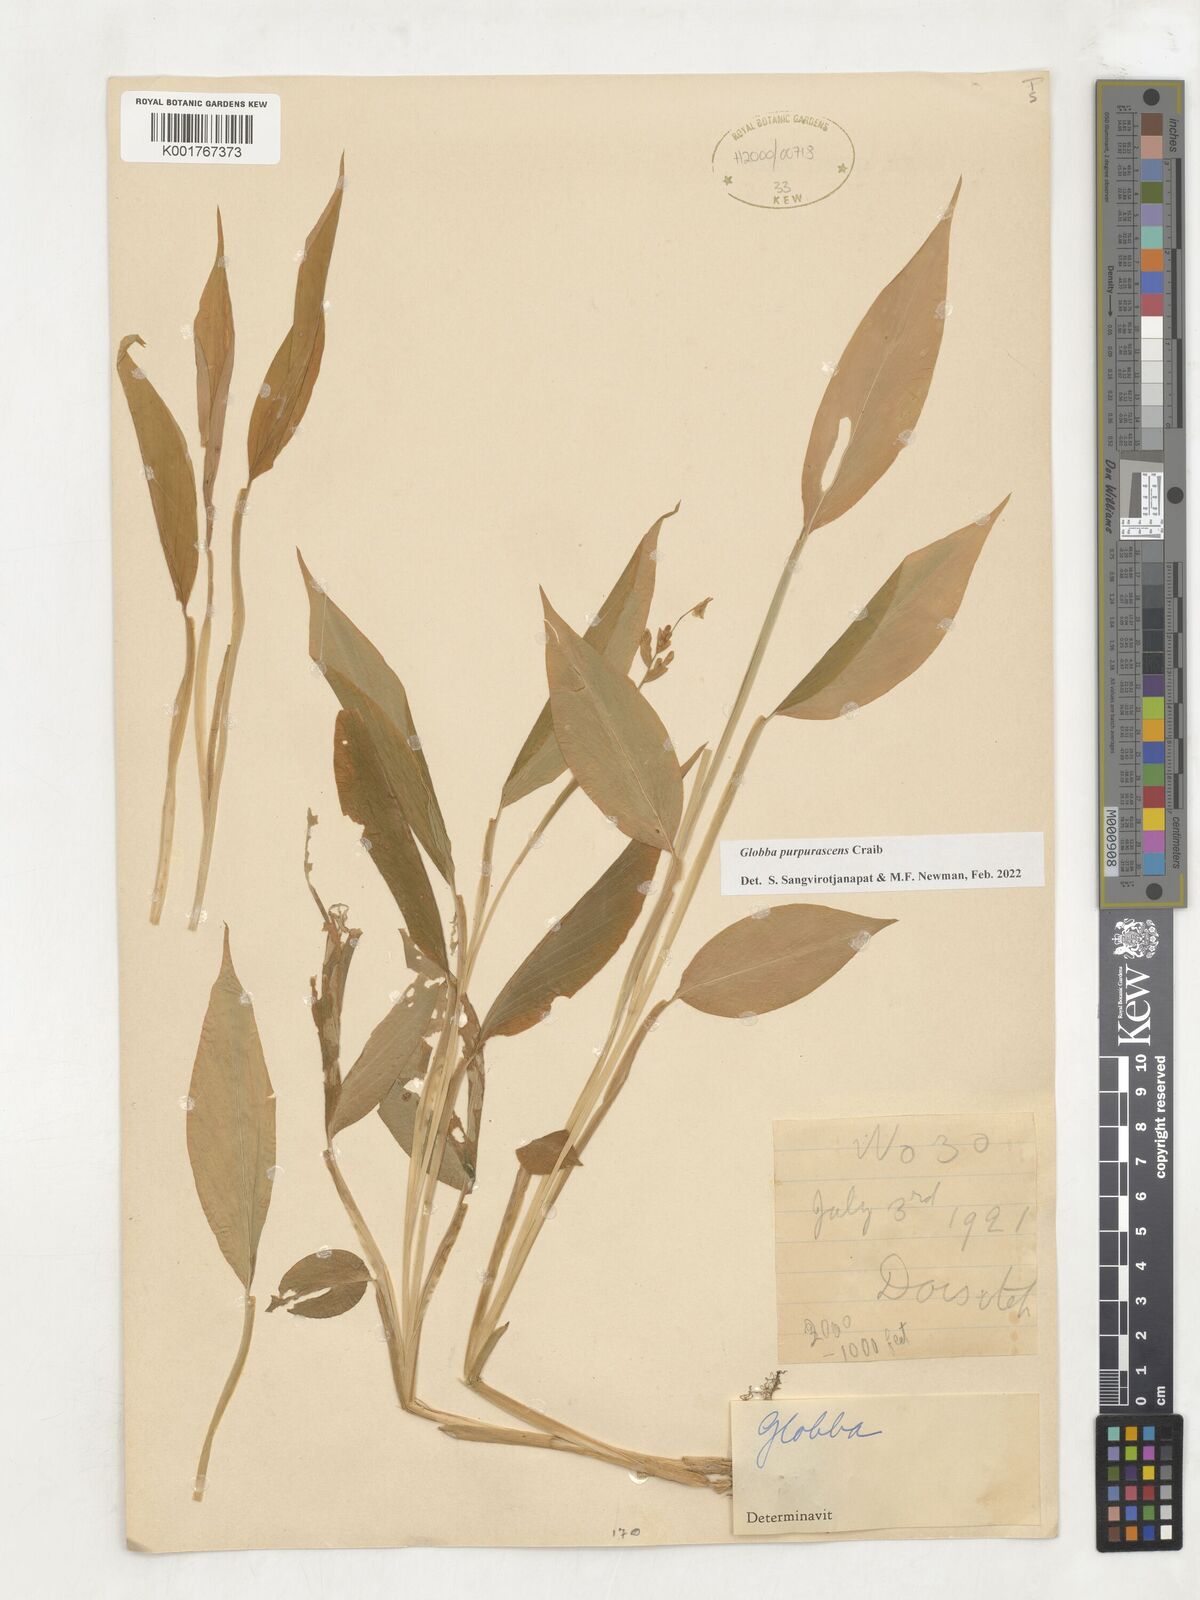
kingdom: Plantae
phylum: Tracheophyta
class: Liliopsida
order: Zingiberales
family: Zingiberaceae
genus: Globba
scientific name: Globba purpurascens
